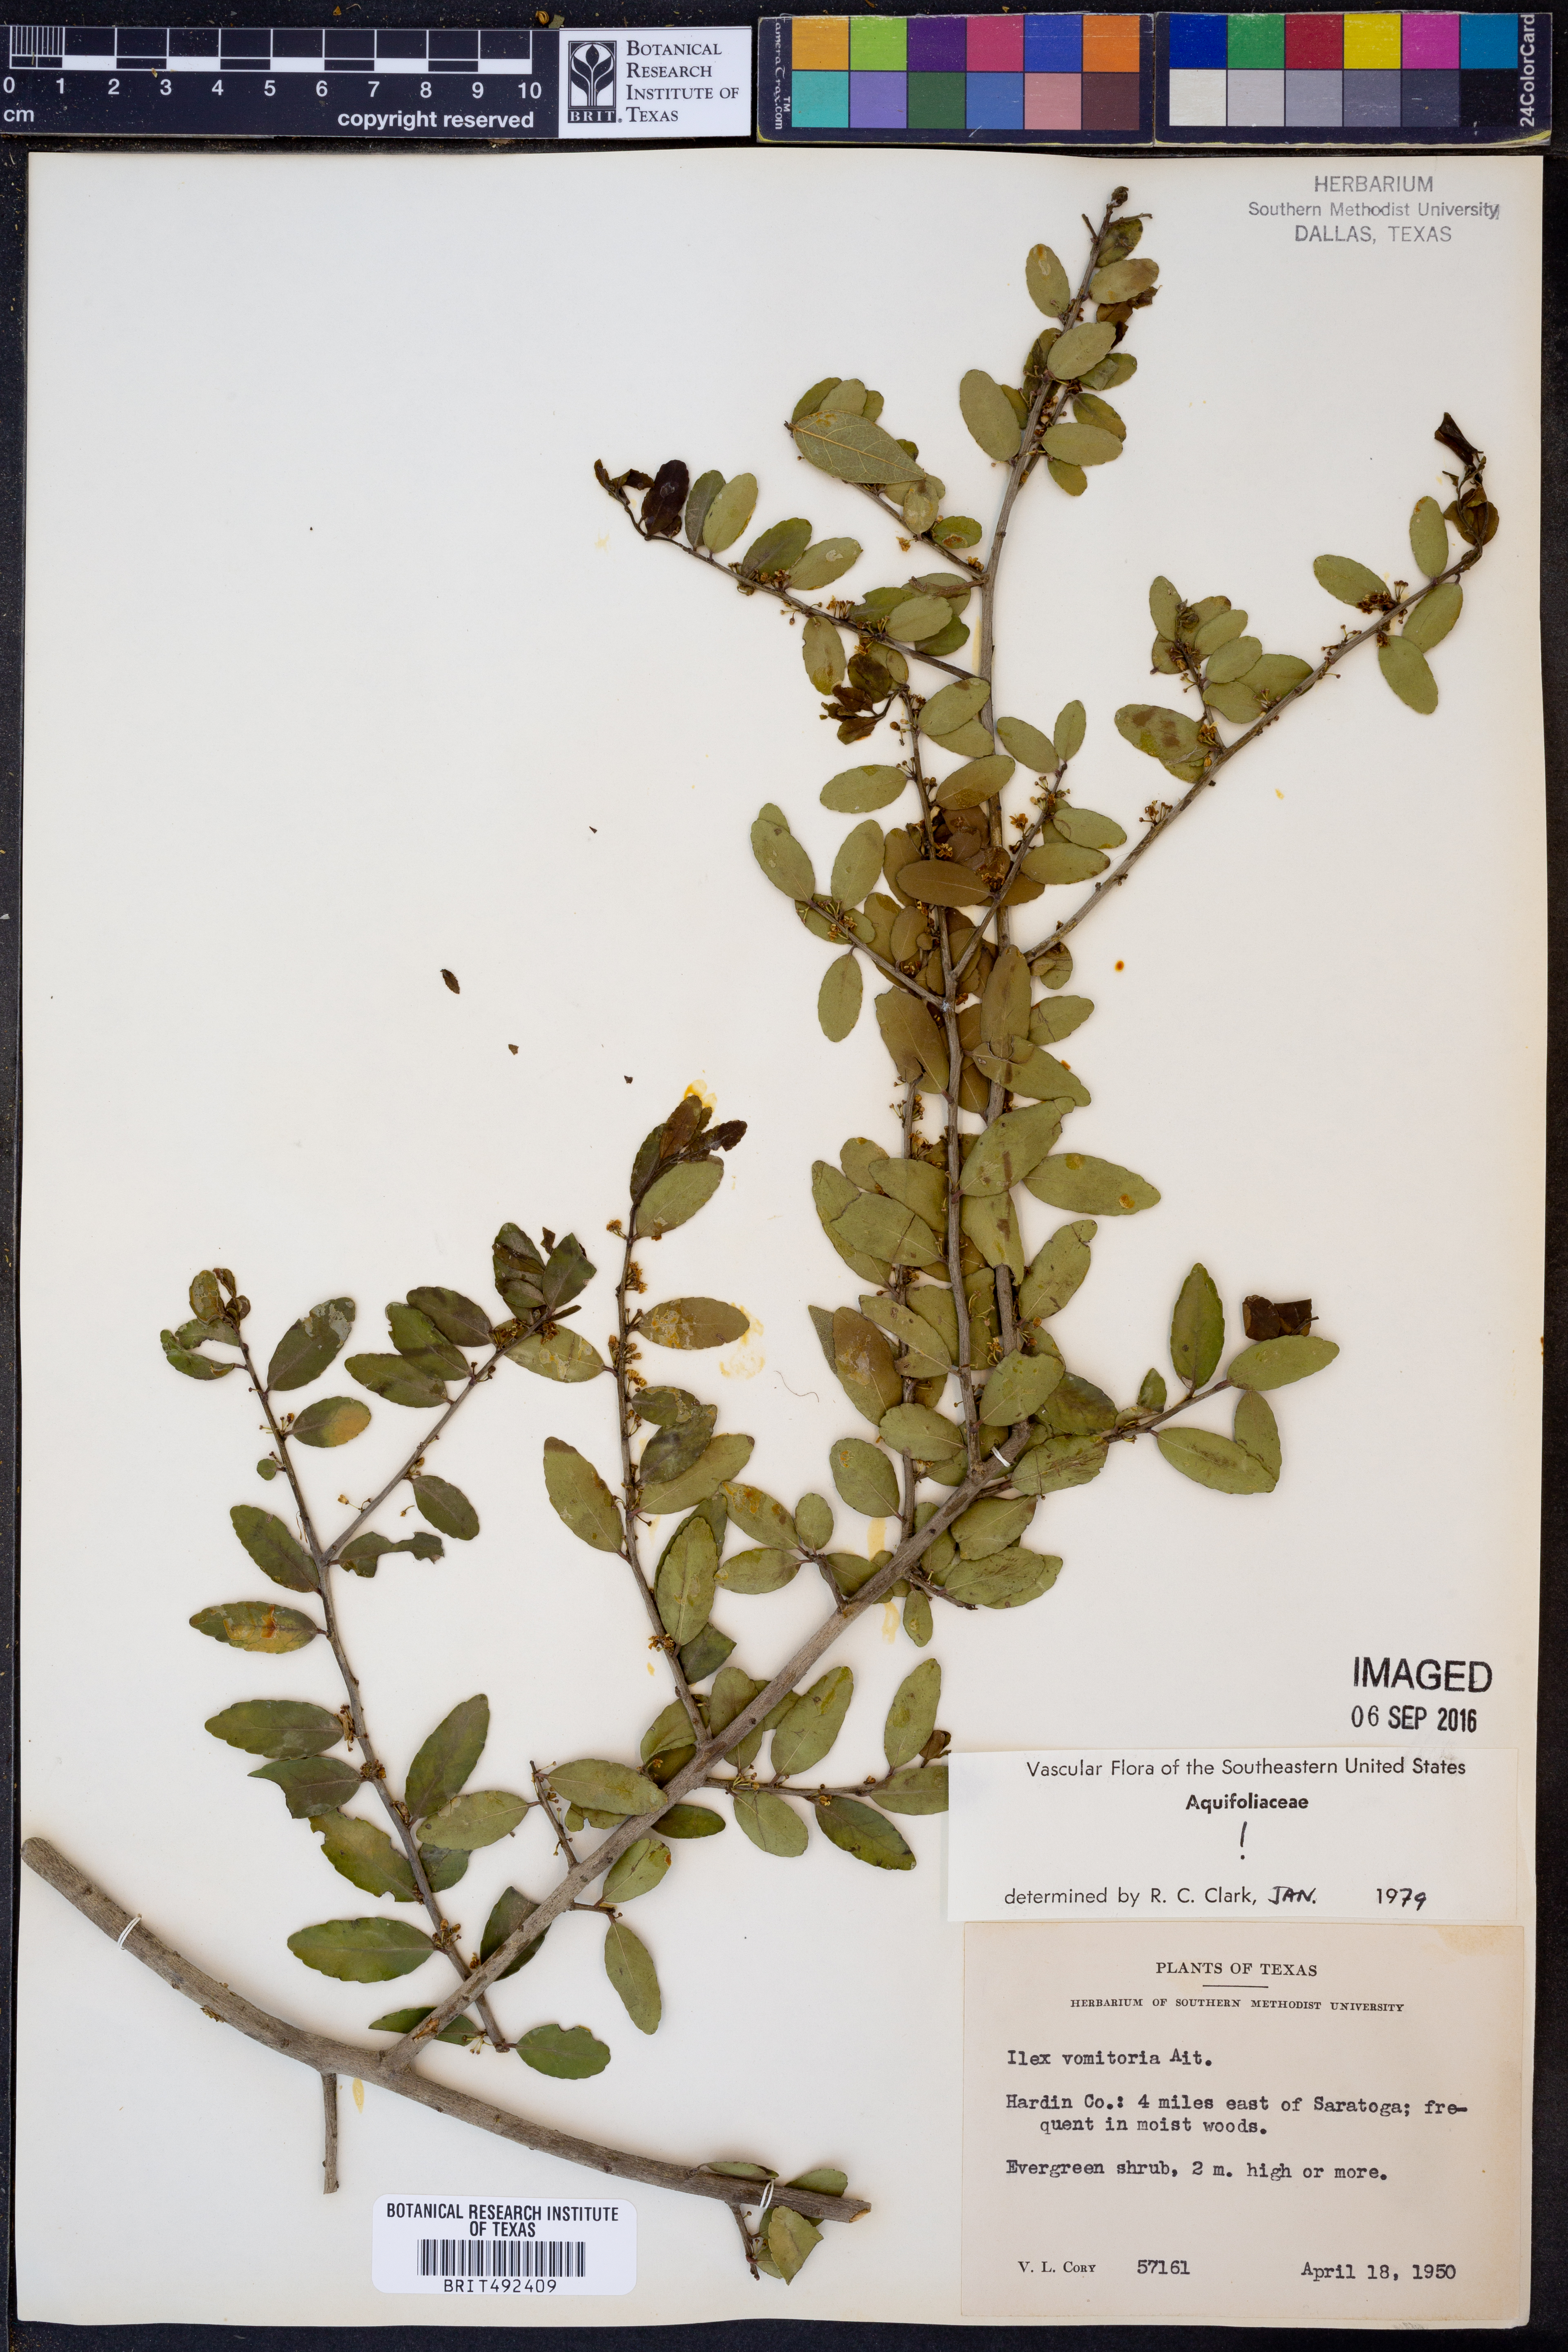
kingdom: Plantae
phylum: Tracheophyta
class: Magnoliopsida
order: Aquifoliales
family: Aquifoliaceae
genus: Ilex
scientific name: Ilex vomitoria
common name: Yaupon holly
